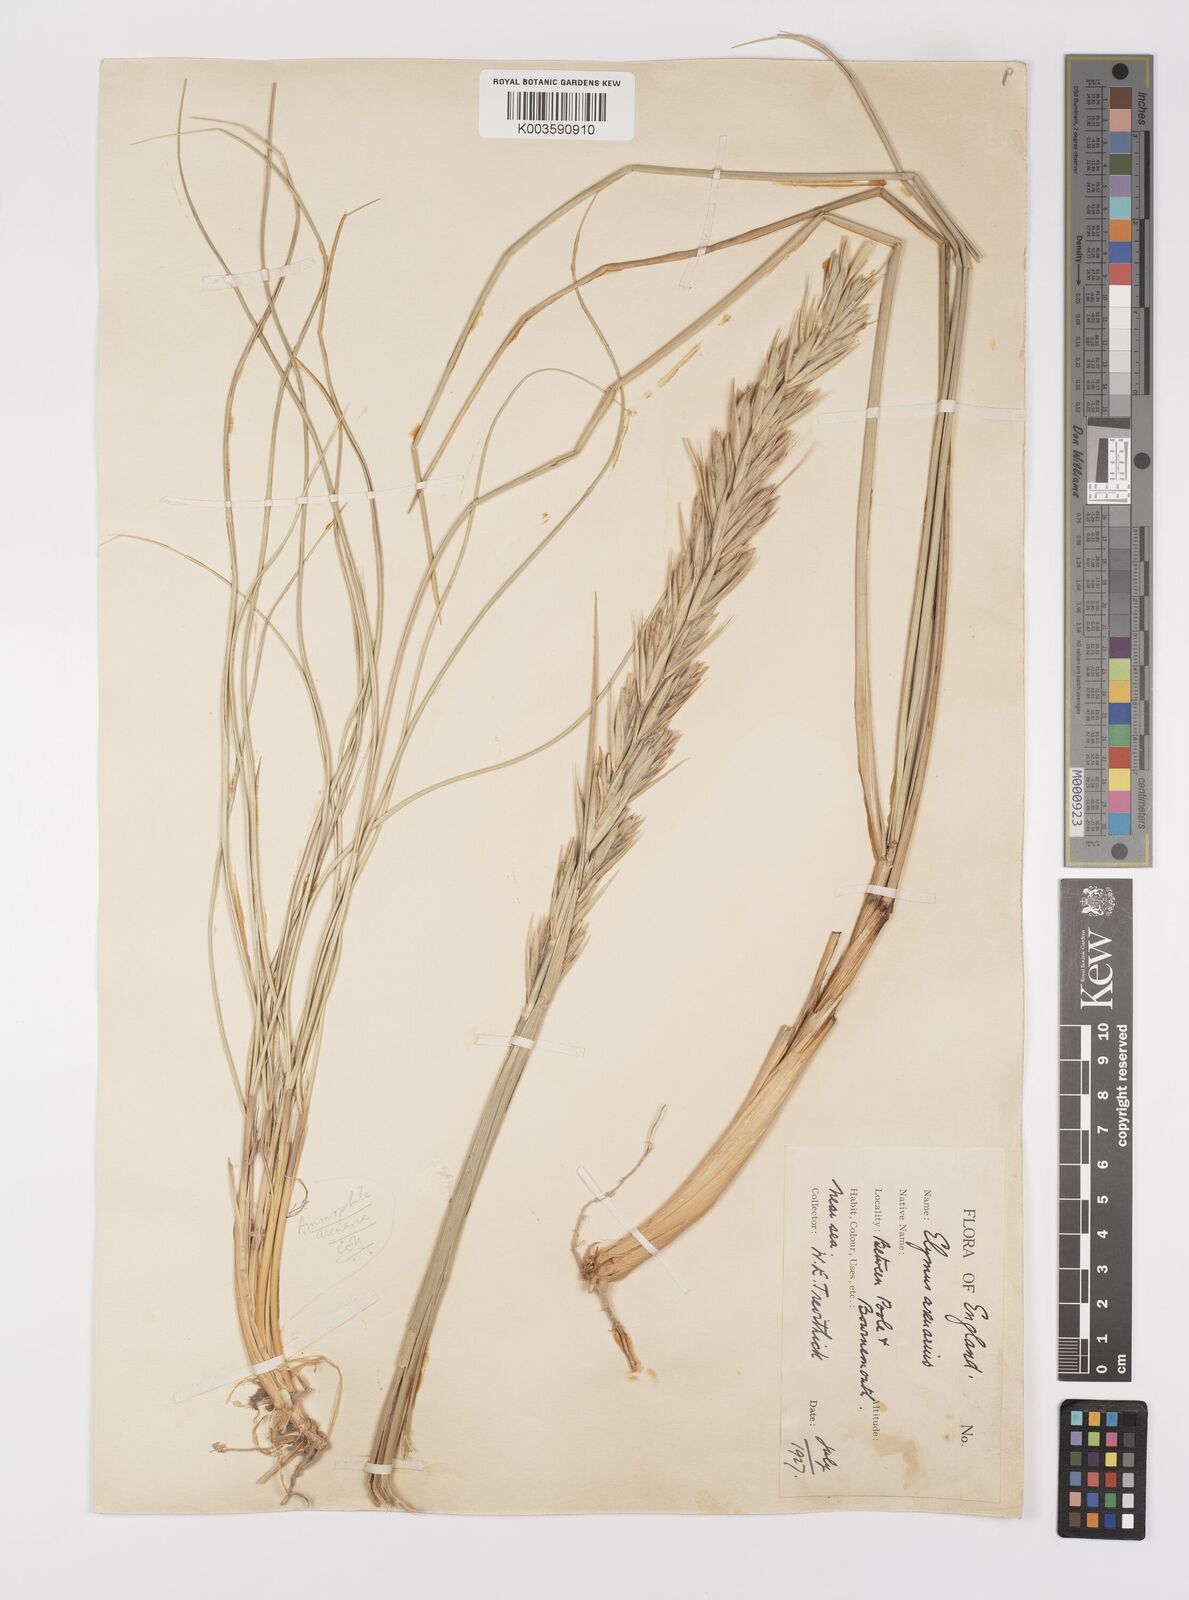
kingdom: Plantae
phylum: Tracheophyta
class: Liliopsida
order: Poales
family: Poaceae
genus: Leymus
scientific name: Leymus arenarius
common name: Lyme-grass
